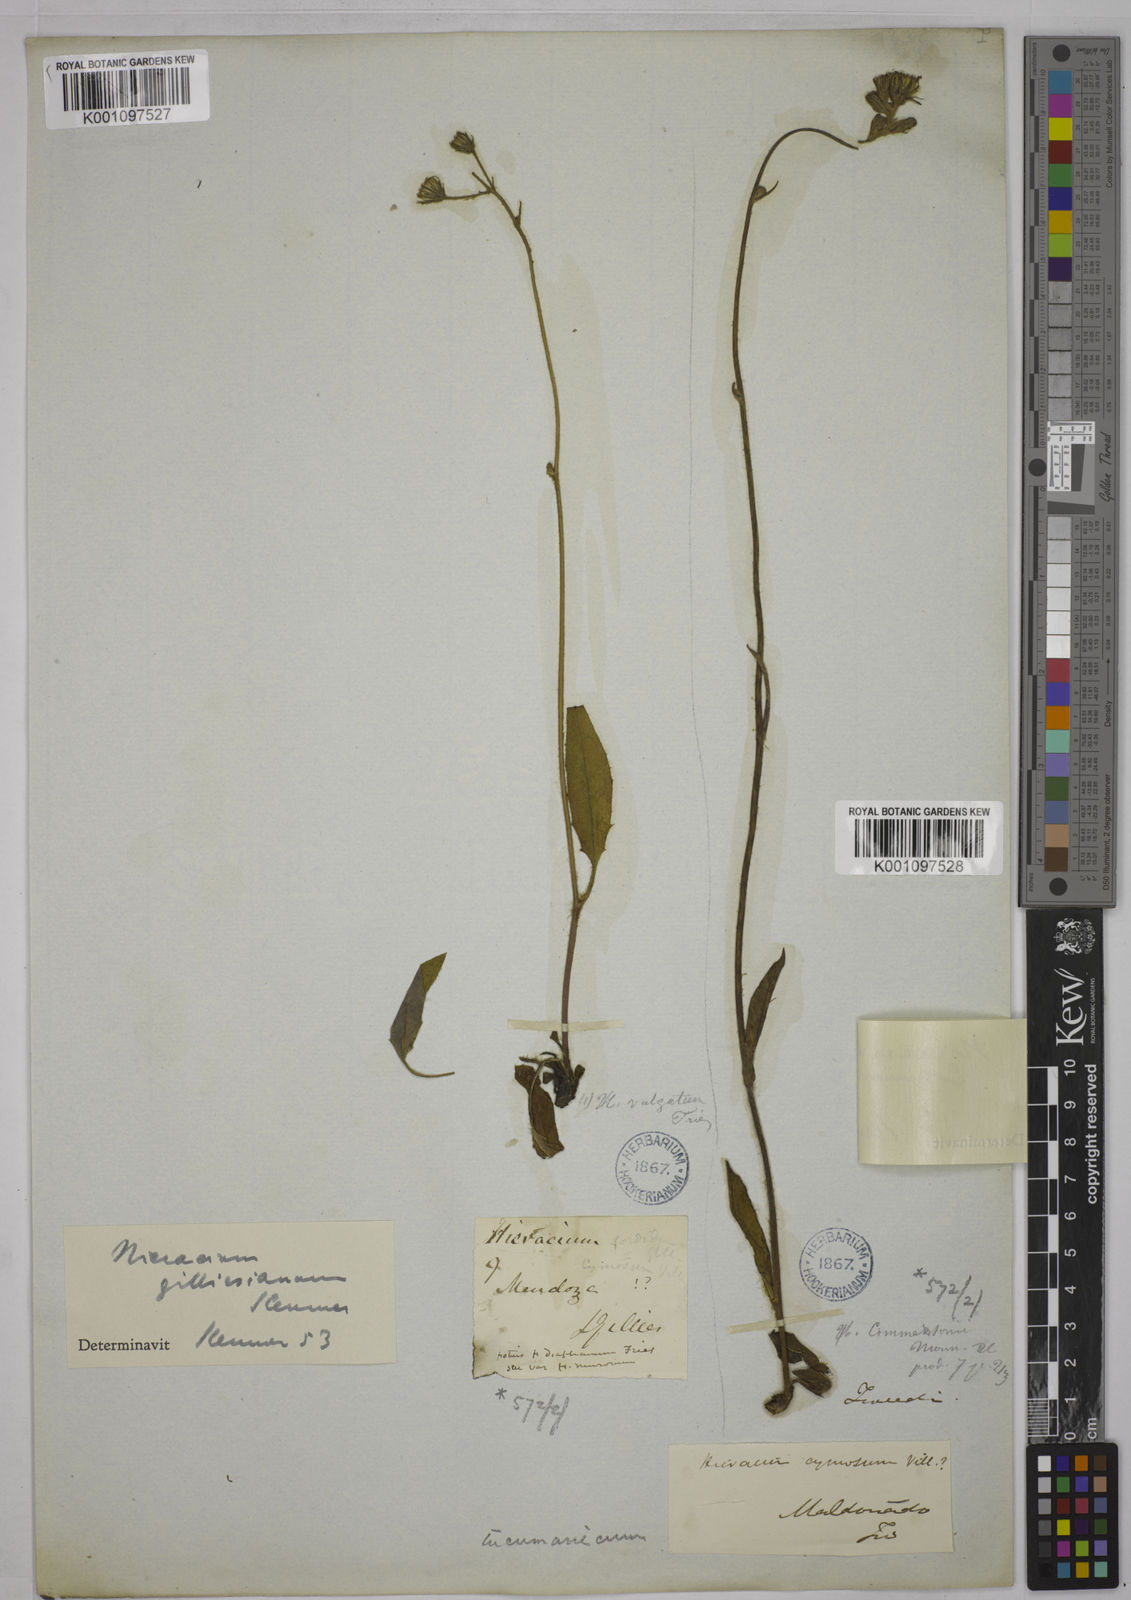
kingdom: Plantae
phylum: Tracheophyta
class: Magnoliopsida
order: Asterales
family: Asteraceae
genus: Hieracium
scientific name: Hieracium tucumanicum
